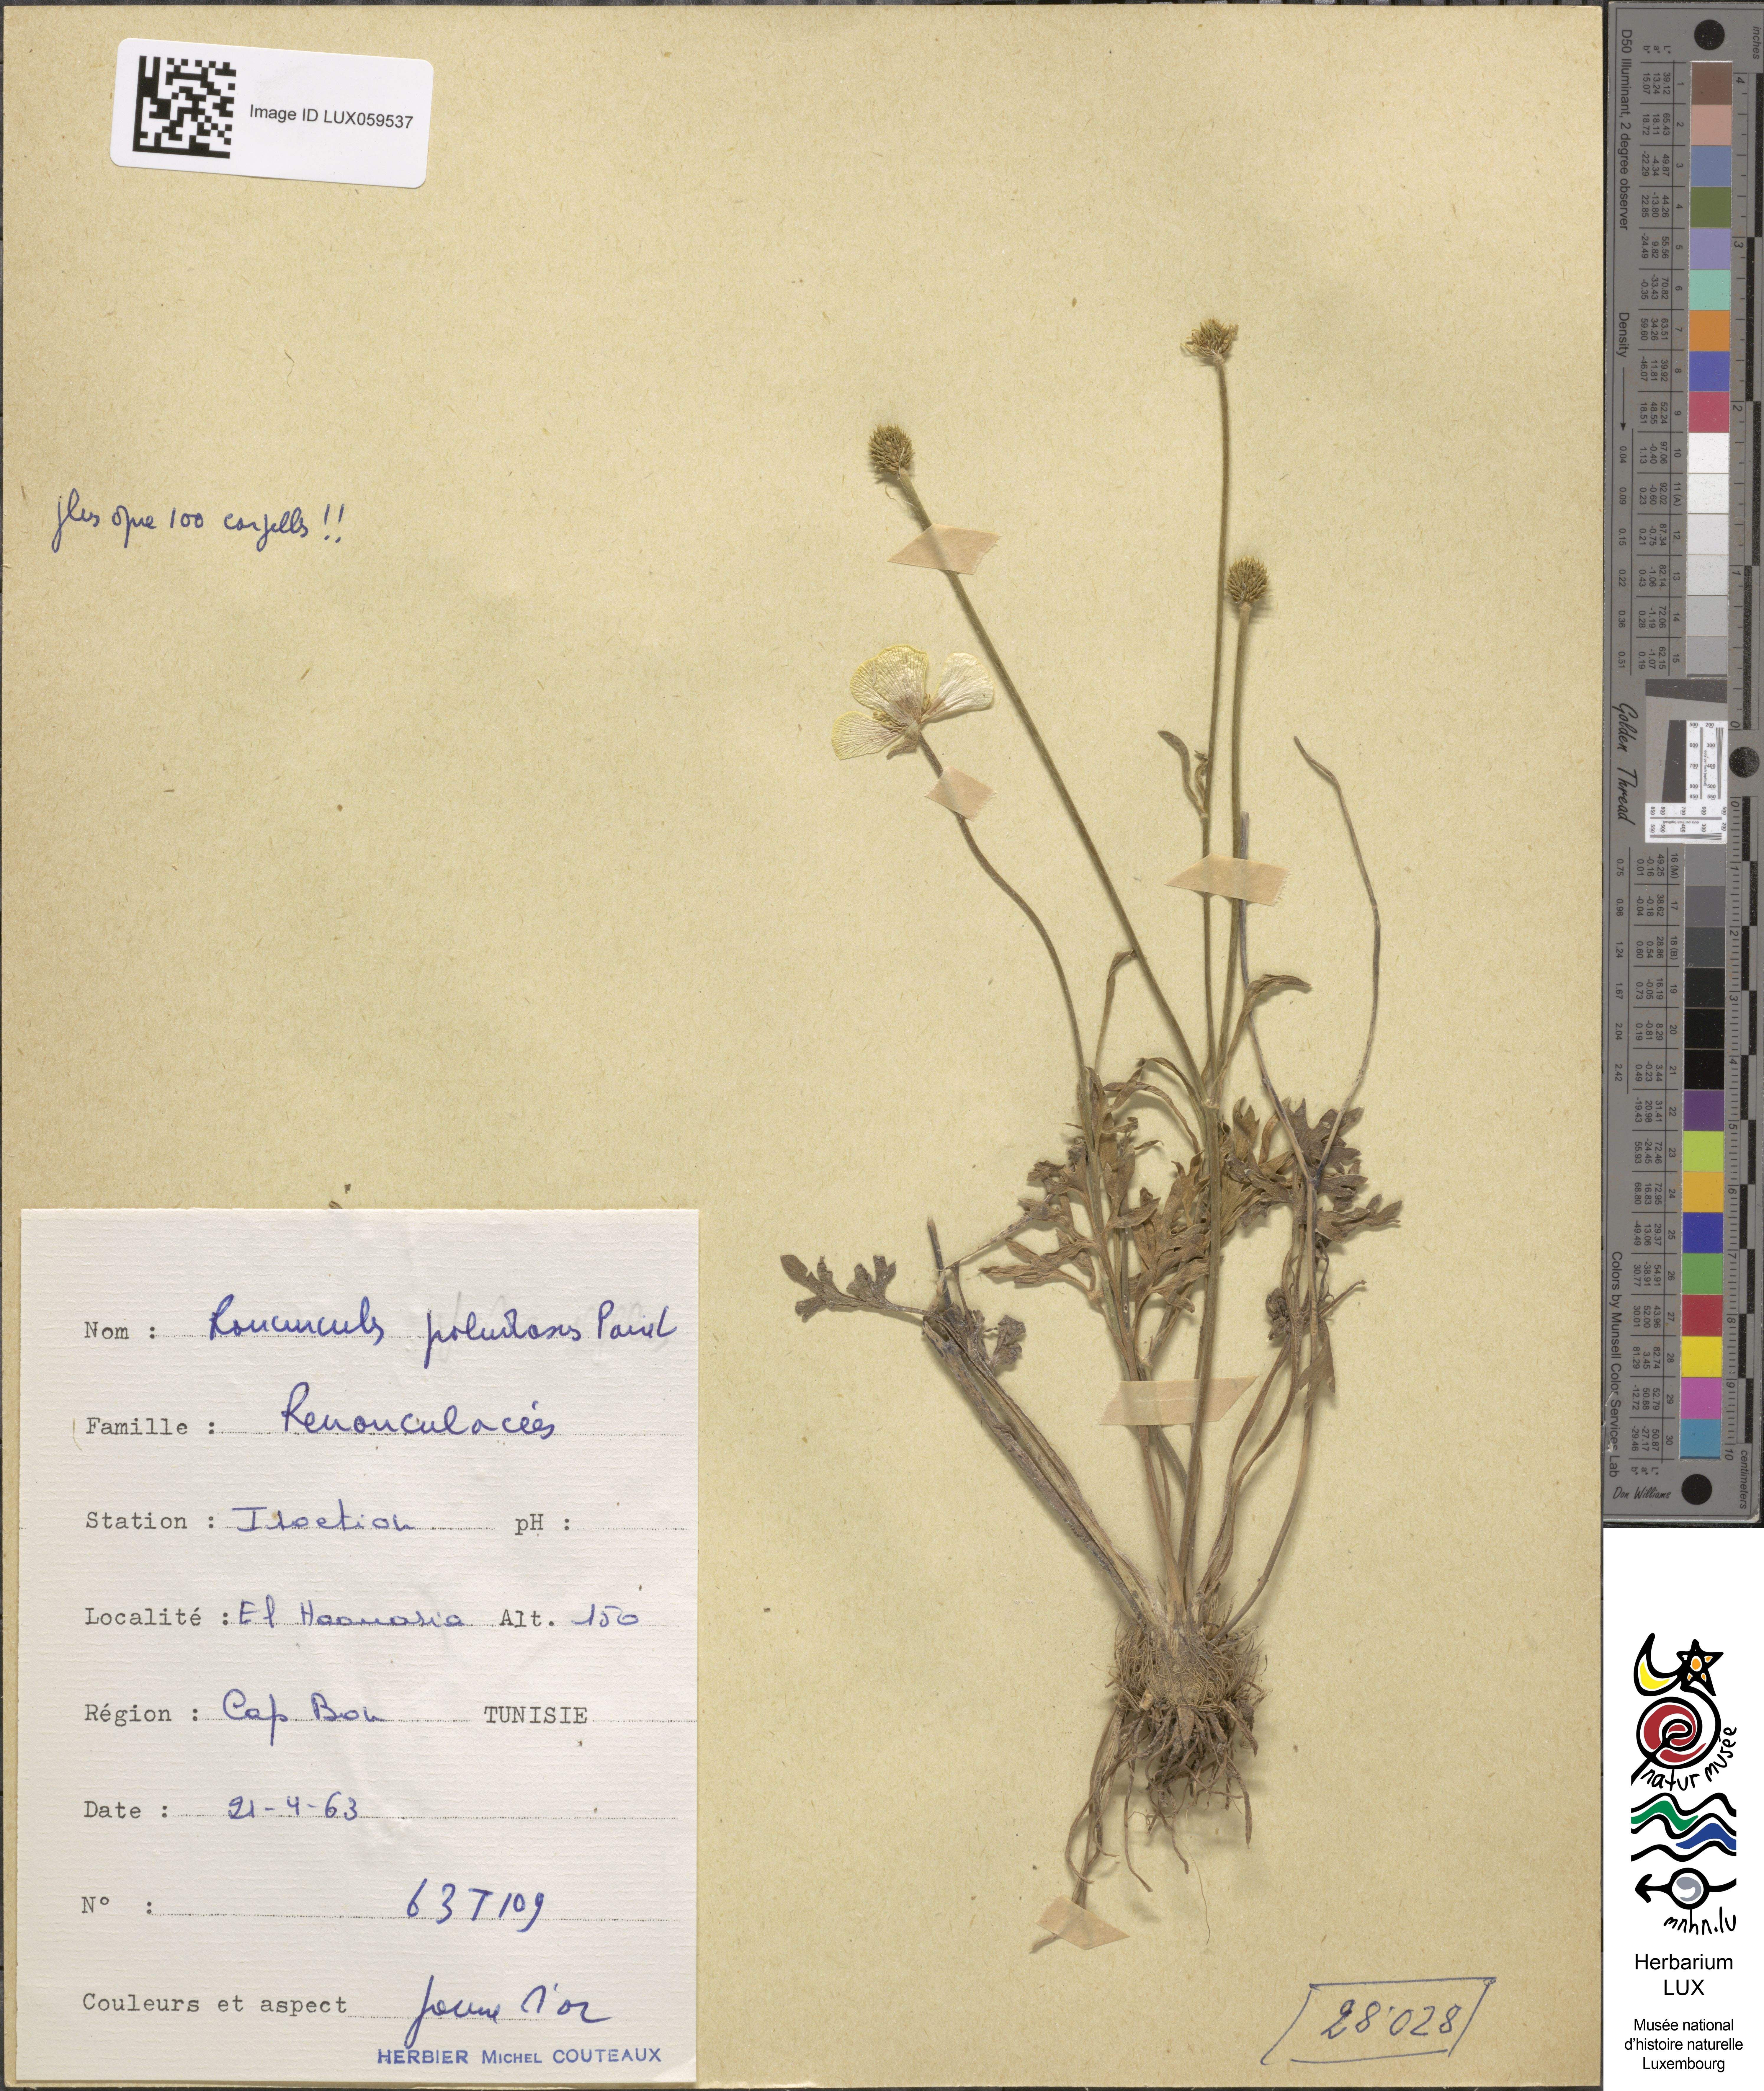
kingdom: Plantae
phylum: Tracheophyta
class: Magnoliopsida
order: Ranunculales
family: Ranunculaceae
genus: Ranunculus
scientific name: Ranunculus paludosus
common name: Jersey buttercup
